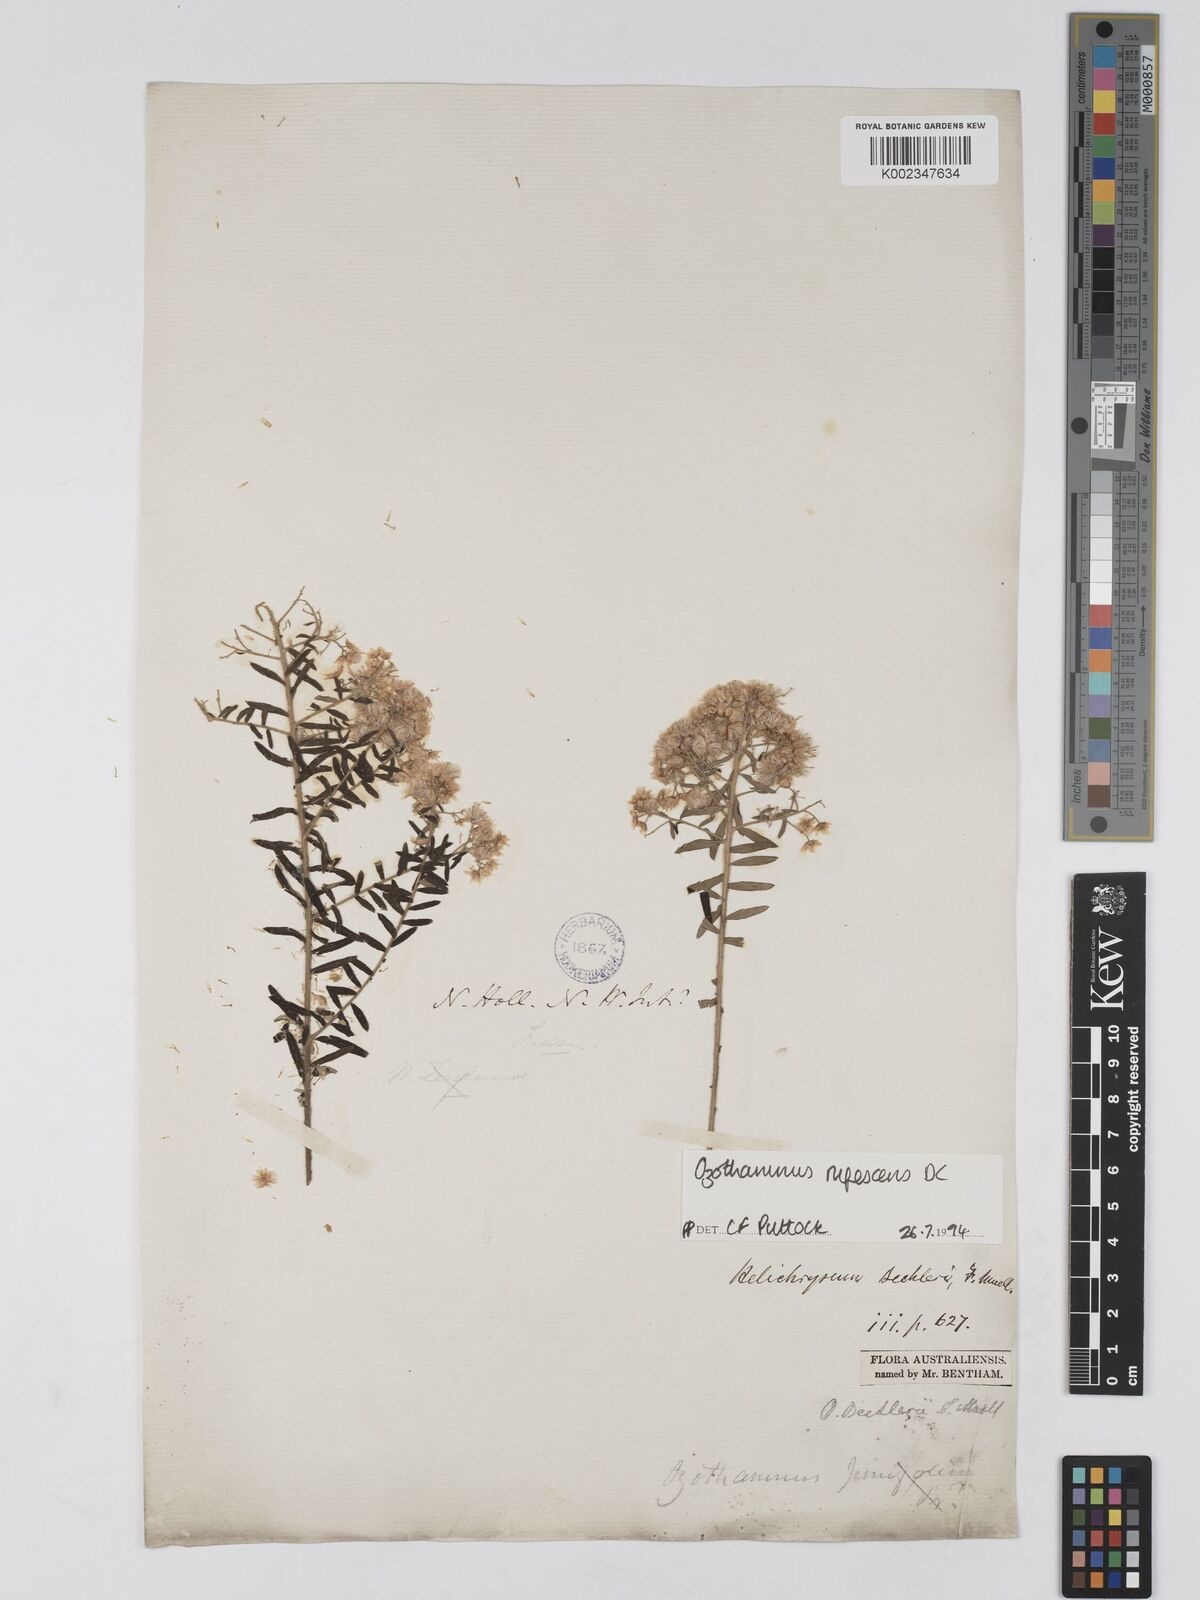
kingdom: Plantae
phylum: Tracheophyta
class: Magnoliopsida
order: Asterales
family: Asteraceae
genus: Ozothamnus
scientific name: Ozothamnus rufescens
